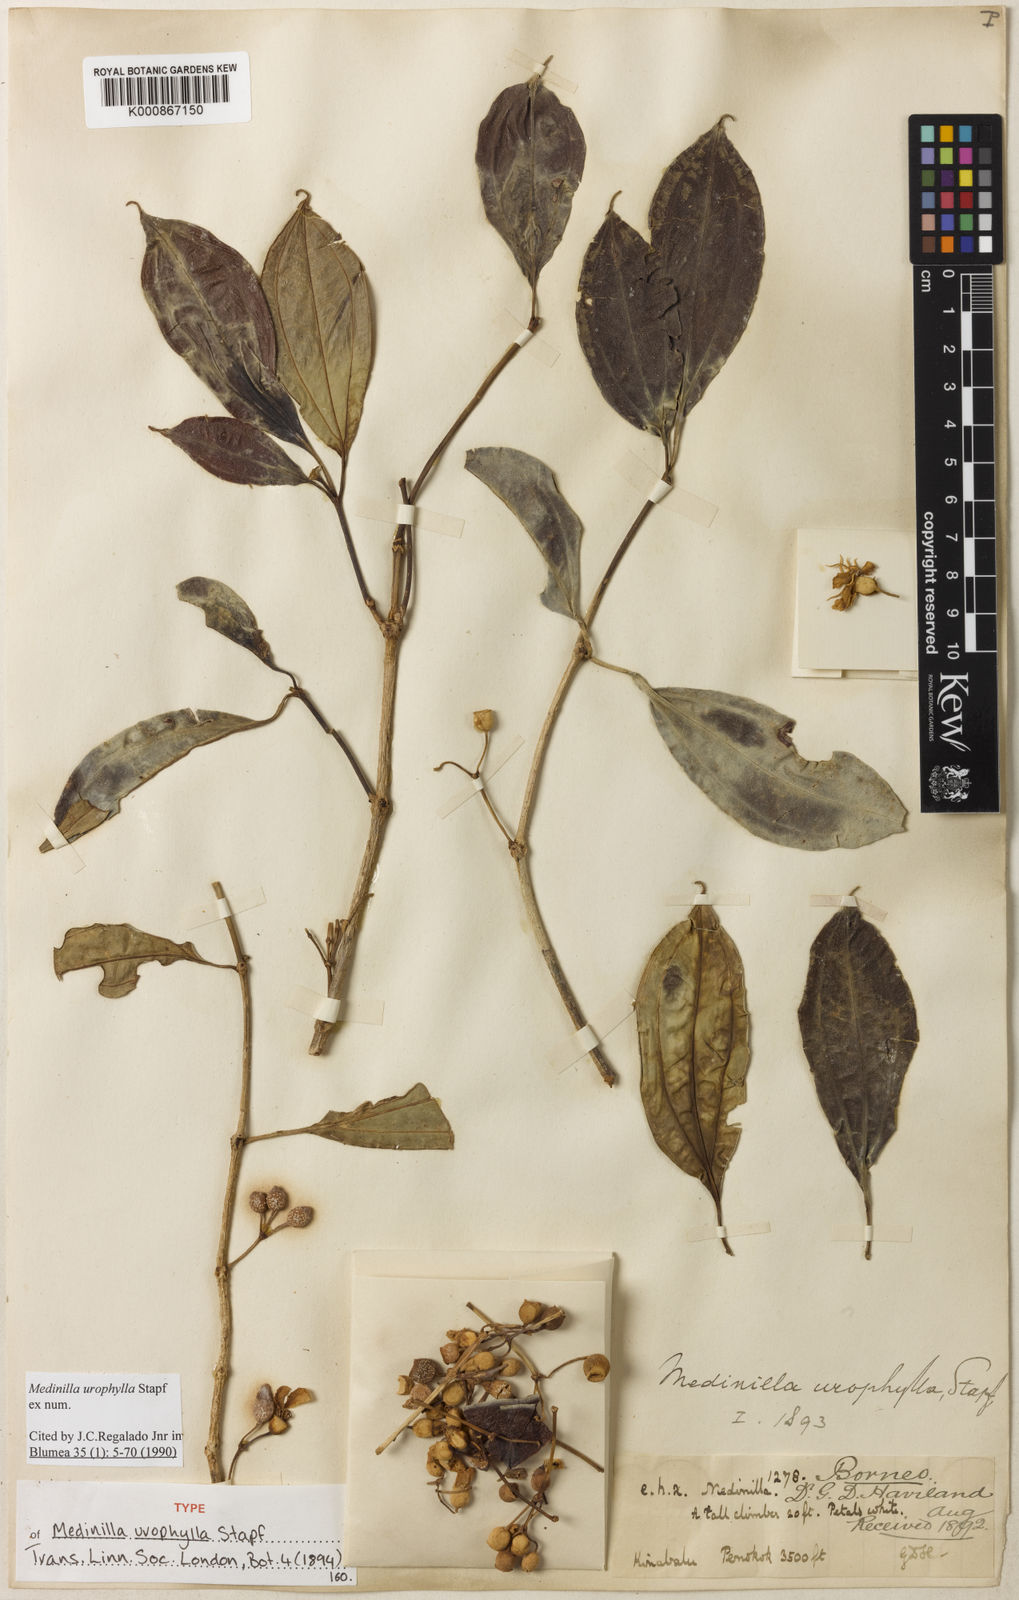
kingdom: Plantae
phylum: Tracheophyta
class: Magnoliopsida
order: Myrtales
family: Melastomataceae
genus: Medinilla
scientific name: Medinilla urophylla
